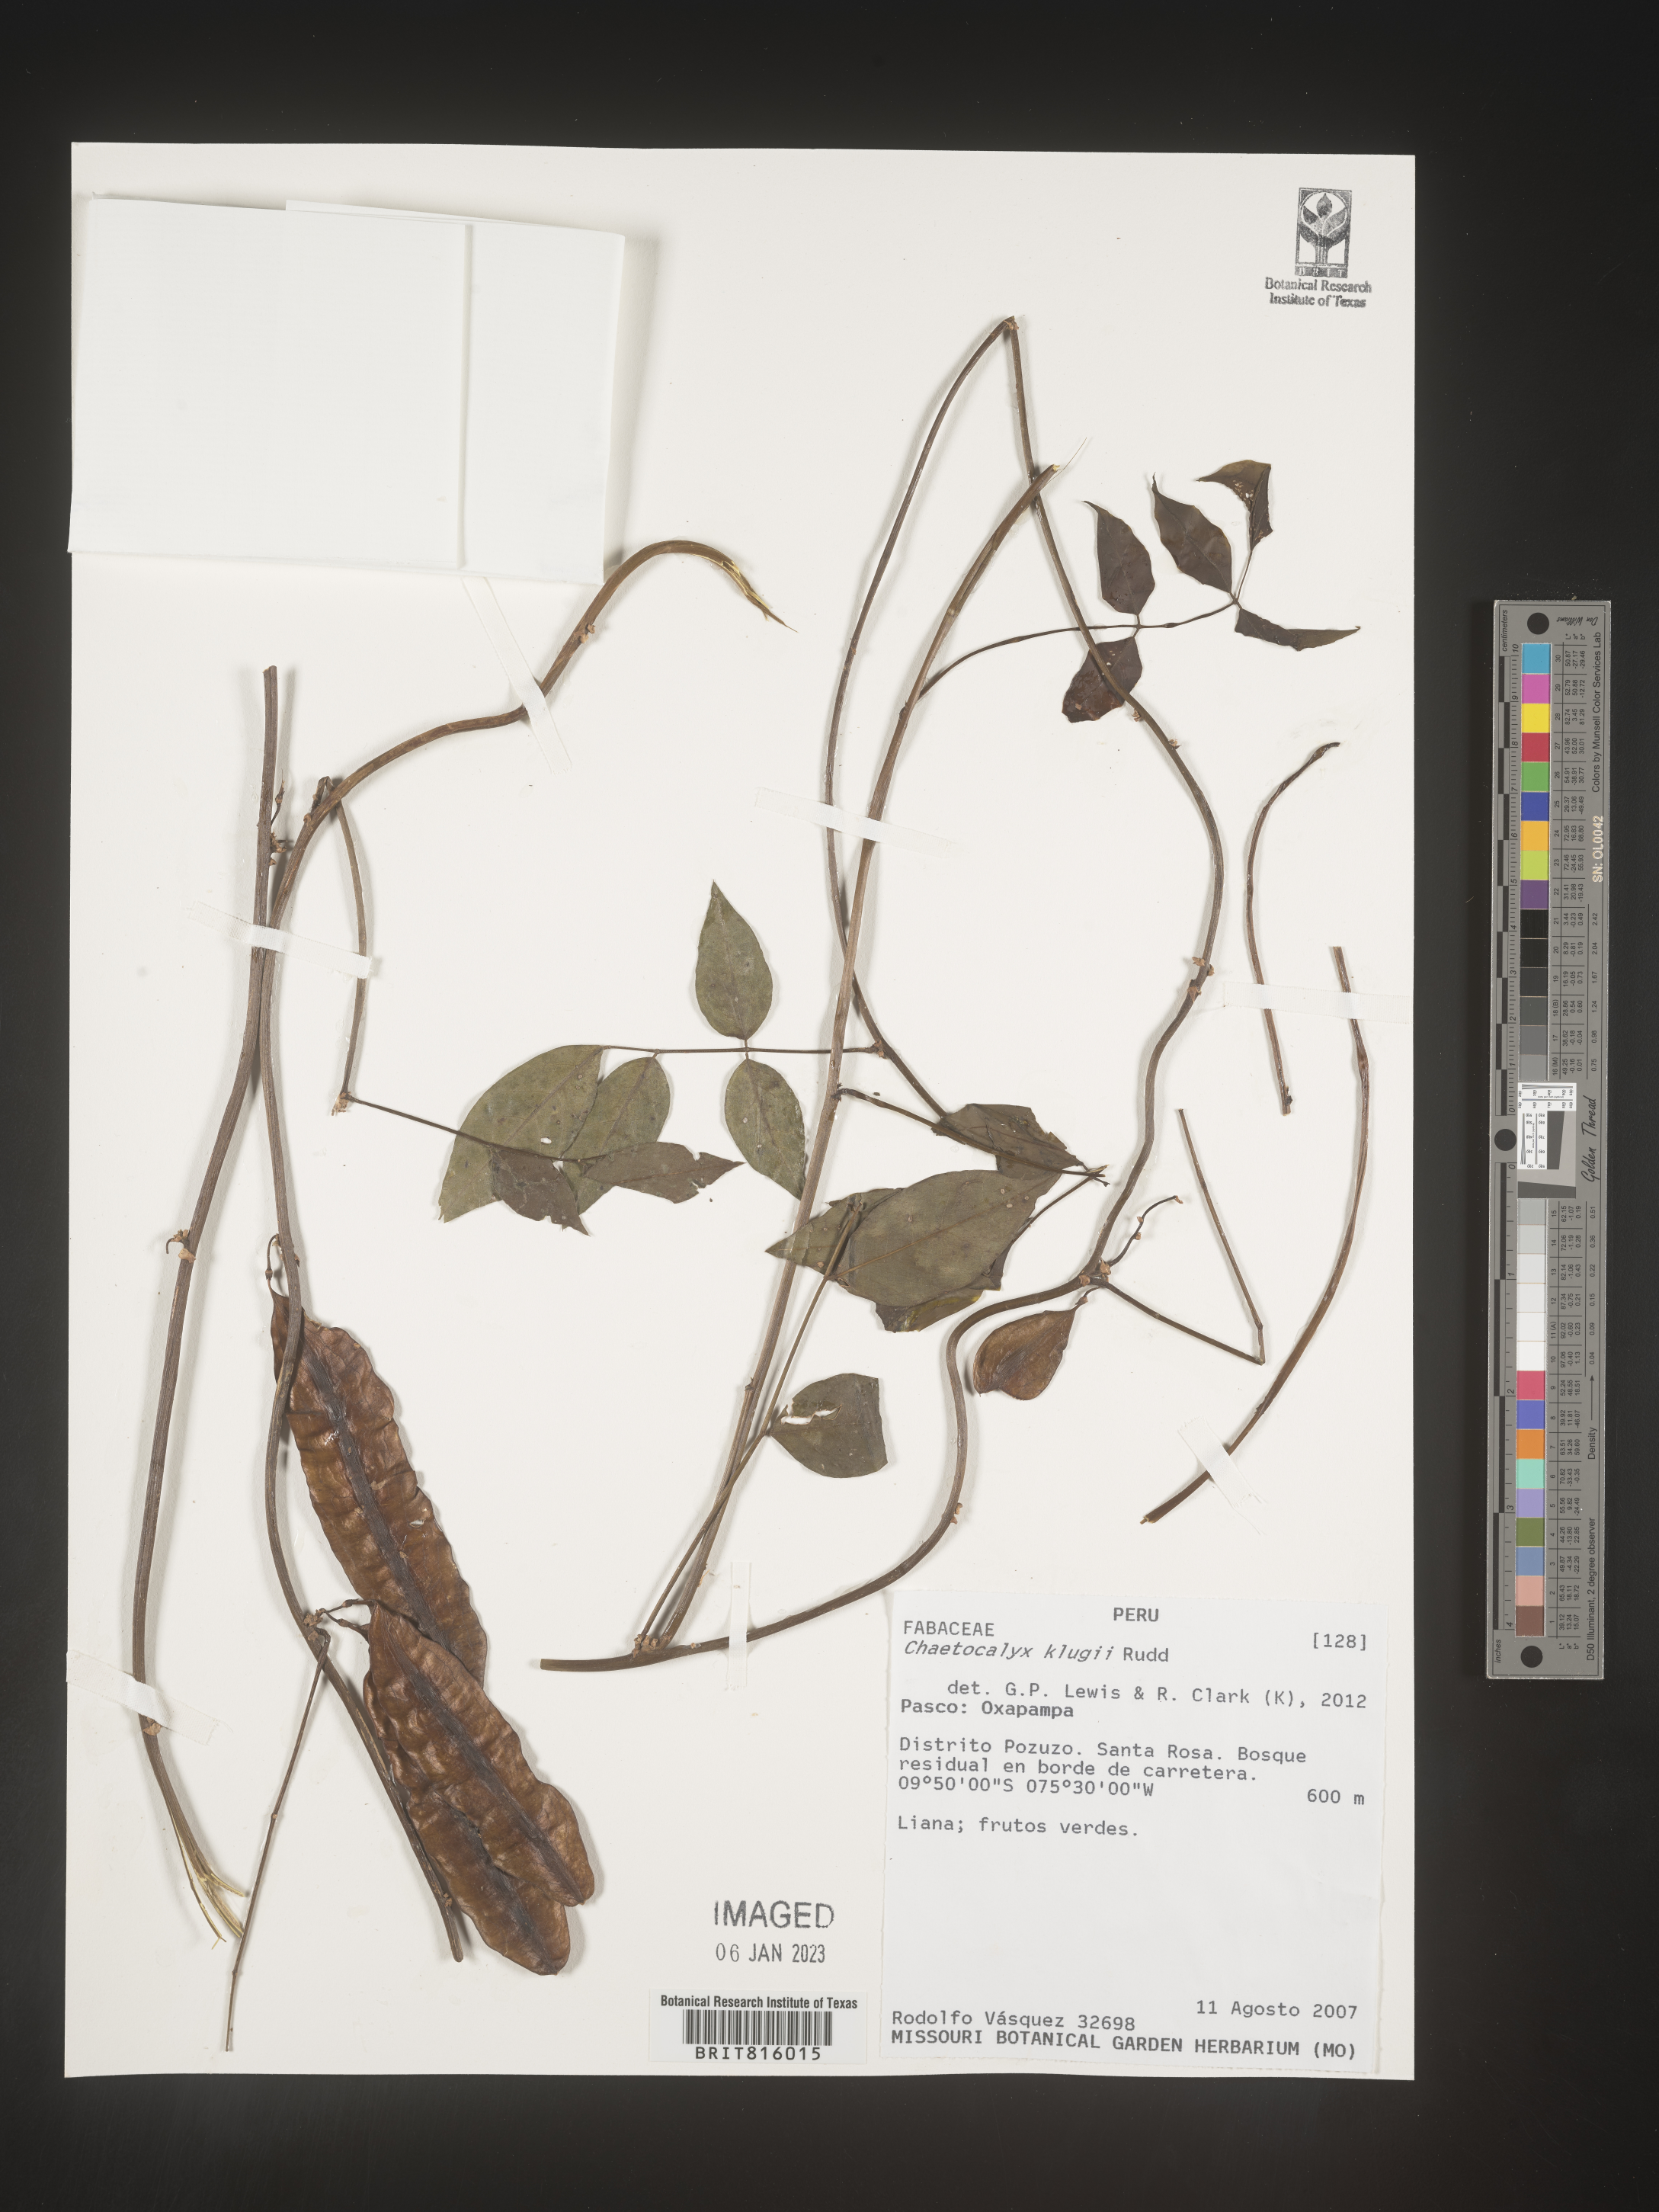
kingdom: Plantae
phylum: Tracheophyta
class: Magnoliopsida
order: Fabales
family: Fabaceae
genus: Nissolia
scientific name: Nissolia
